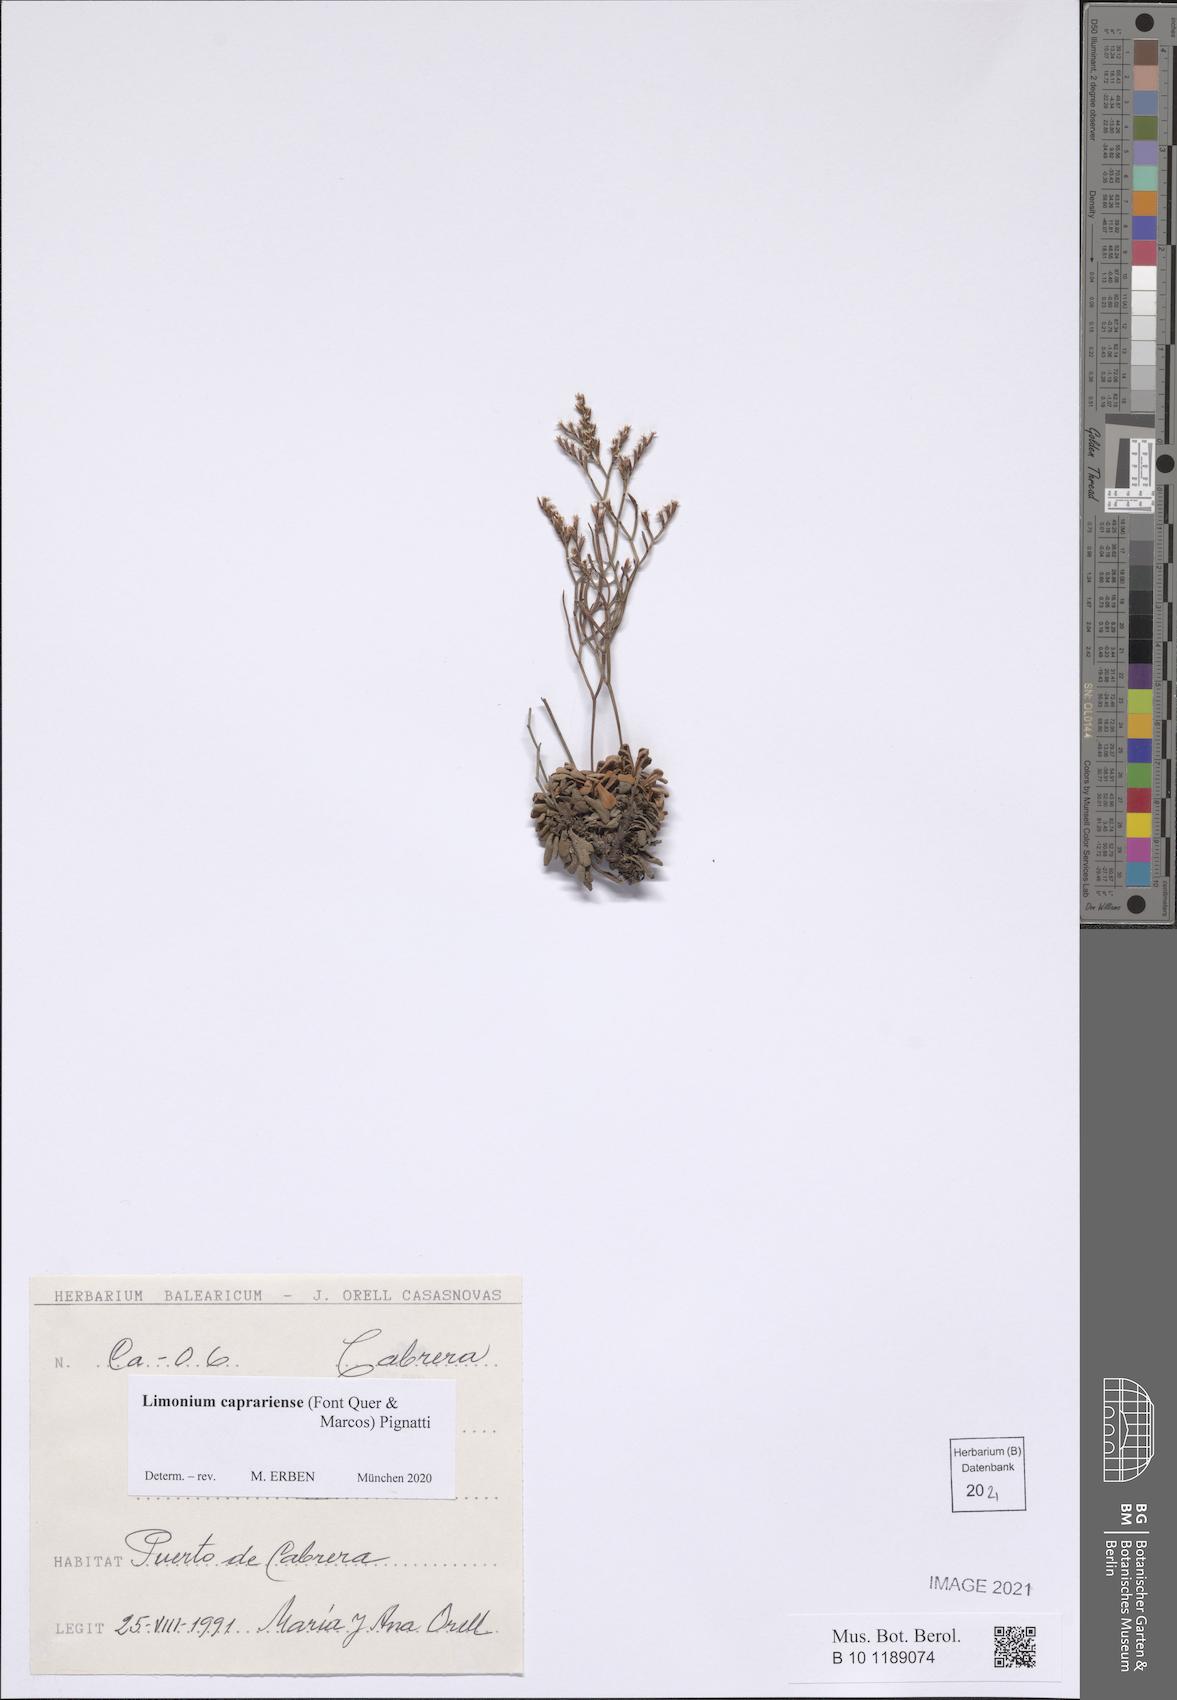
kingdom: Plantae
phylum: Tracheophyta
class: Magnoliopsida
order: Caryophyllales
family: Plumbaginaceae
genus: Limonium
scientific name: Limonium caprariense
